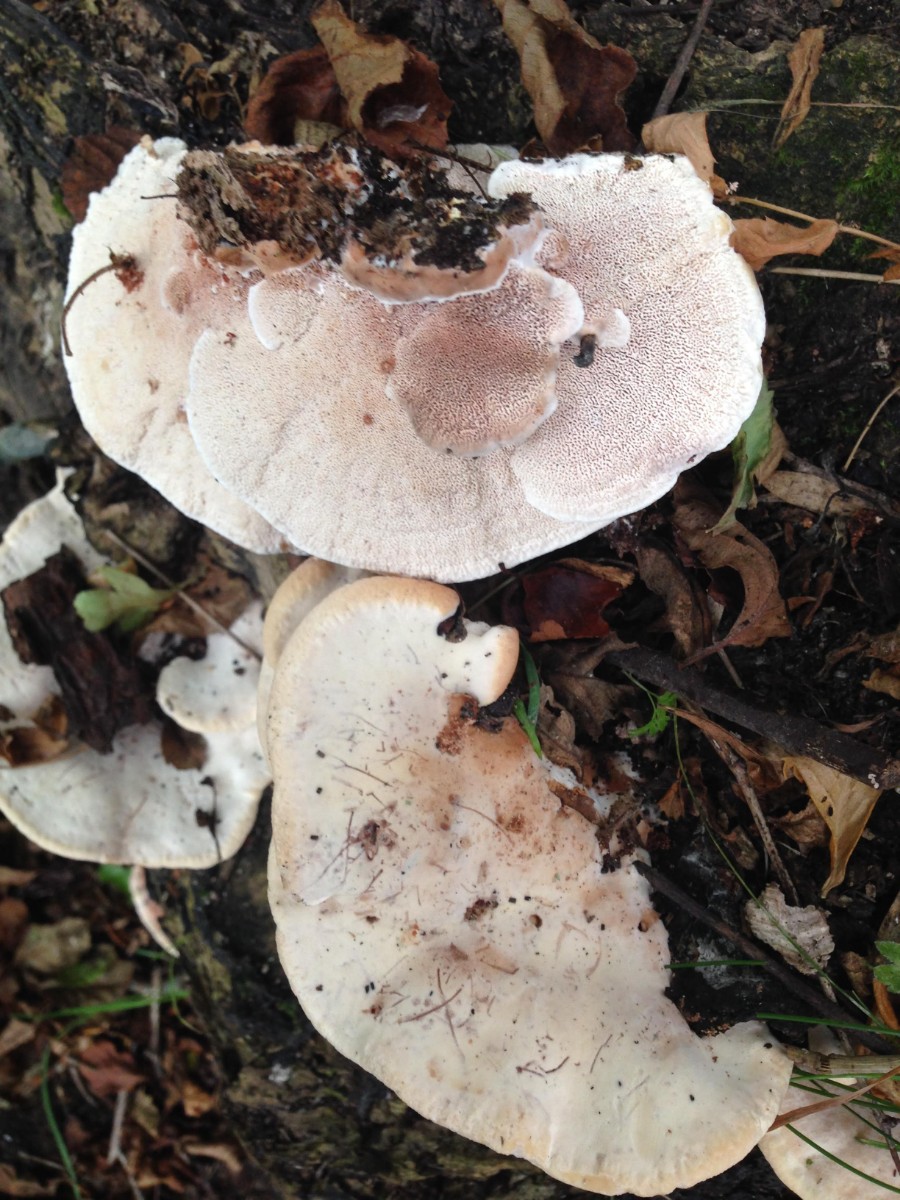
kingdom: Fungi
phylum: Basidiomycota
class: Agaricomycetes
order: Polyporales
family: Podoscyphaceae
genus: Abortiporus
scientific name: Abortiporus biennis
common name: rødmende pjalteporesvamp
